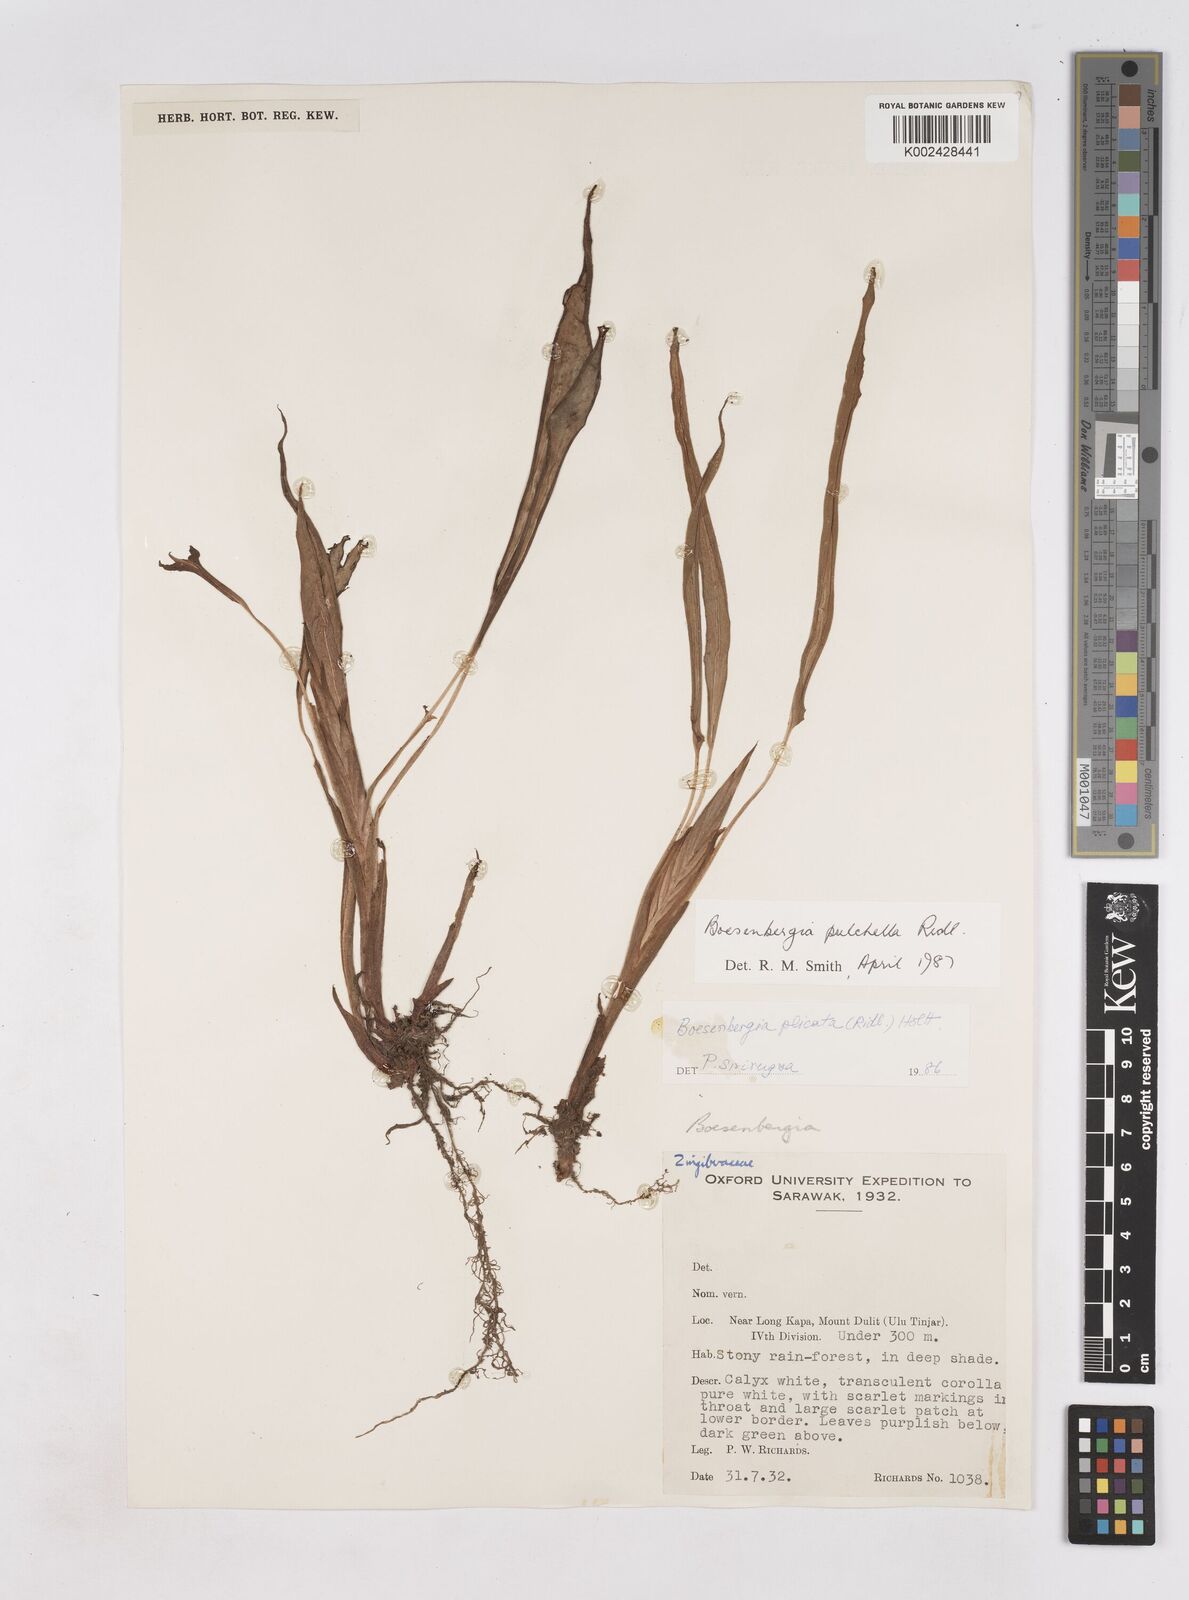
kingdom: Plantae
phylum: Tracheophyta
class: Liliopsida
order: Zingiberales
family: Zingiberaceae
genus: Boesenbergia
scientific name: Boesenbergia pulchella
